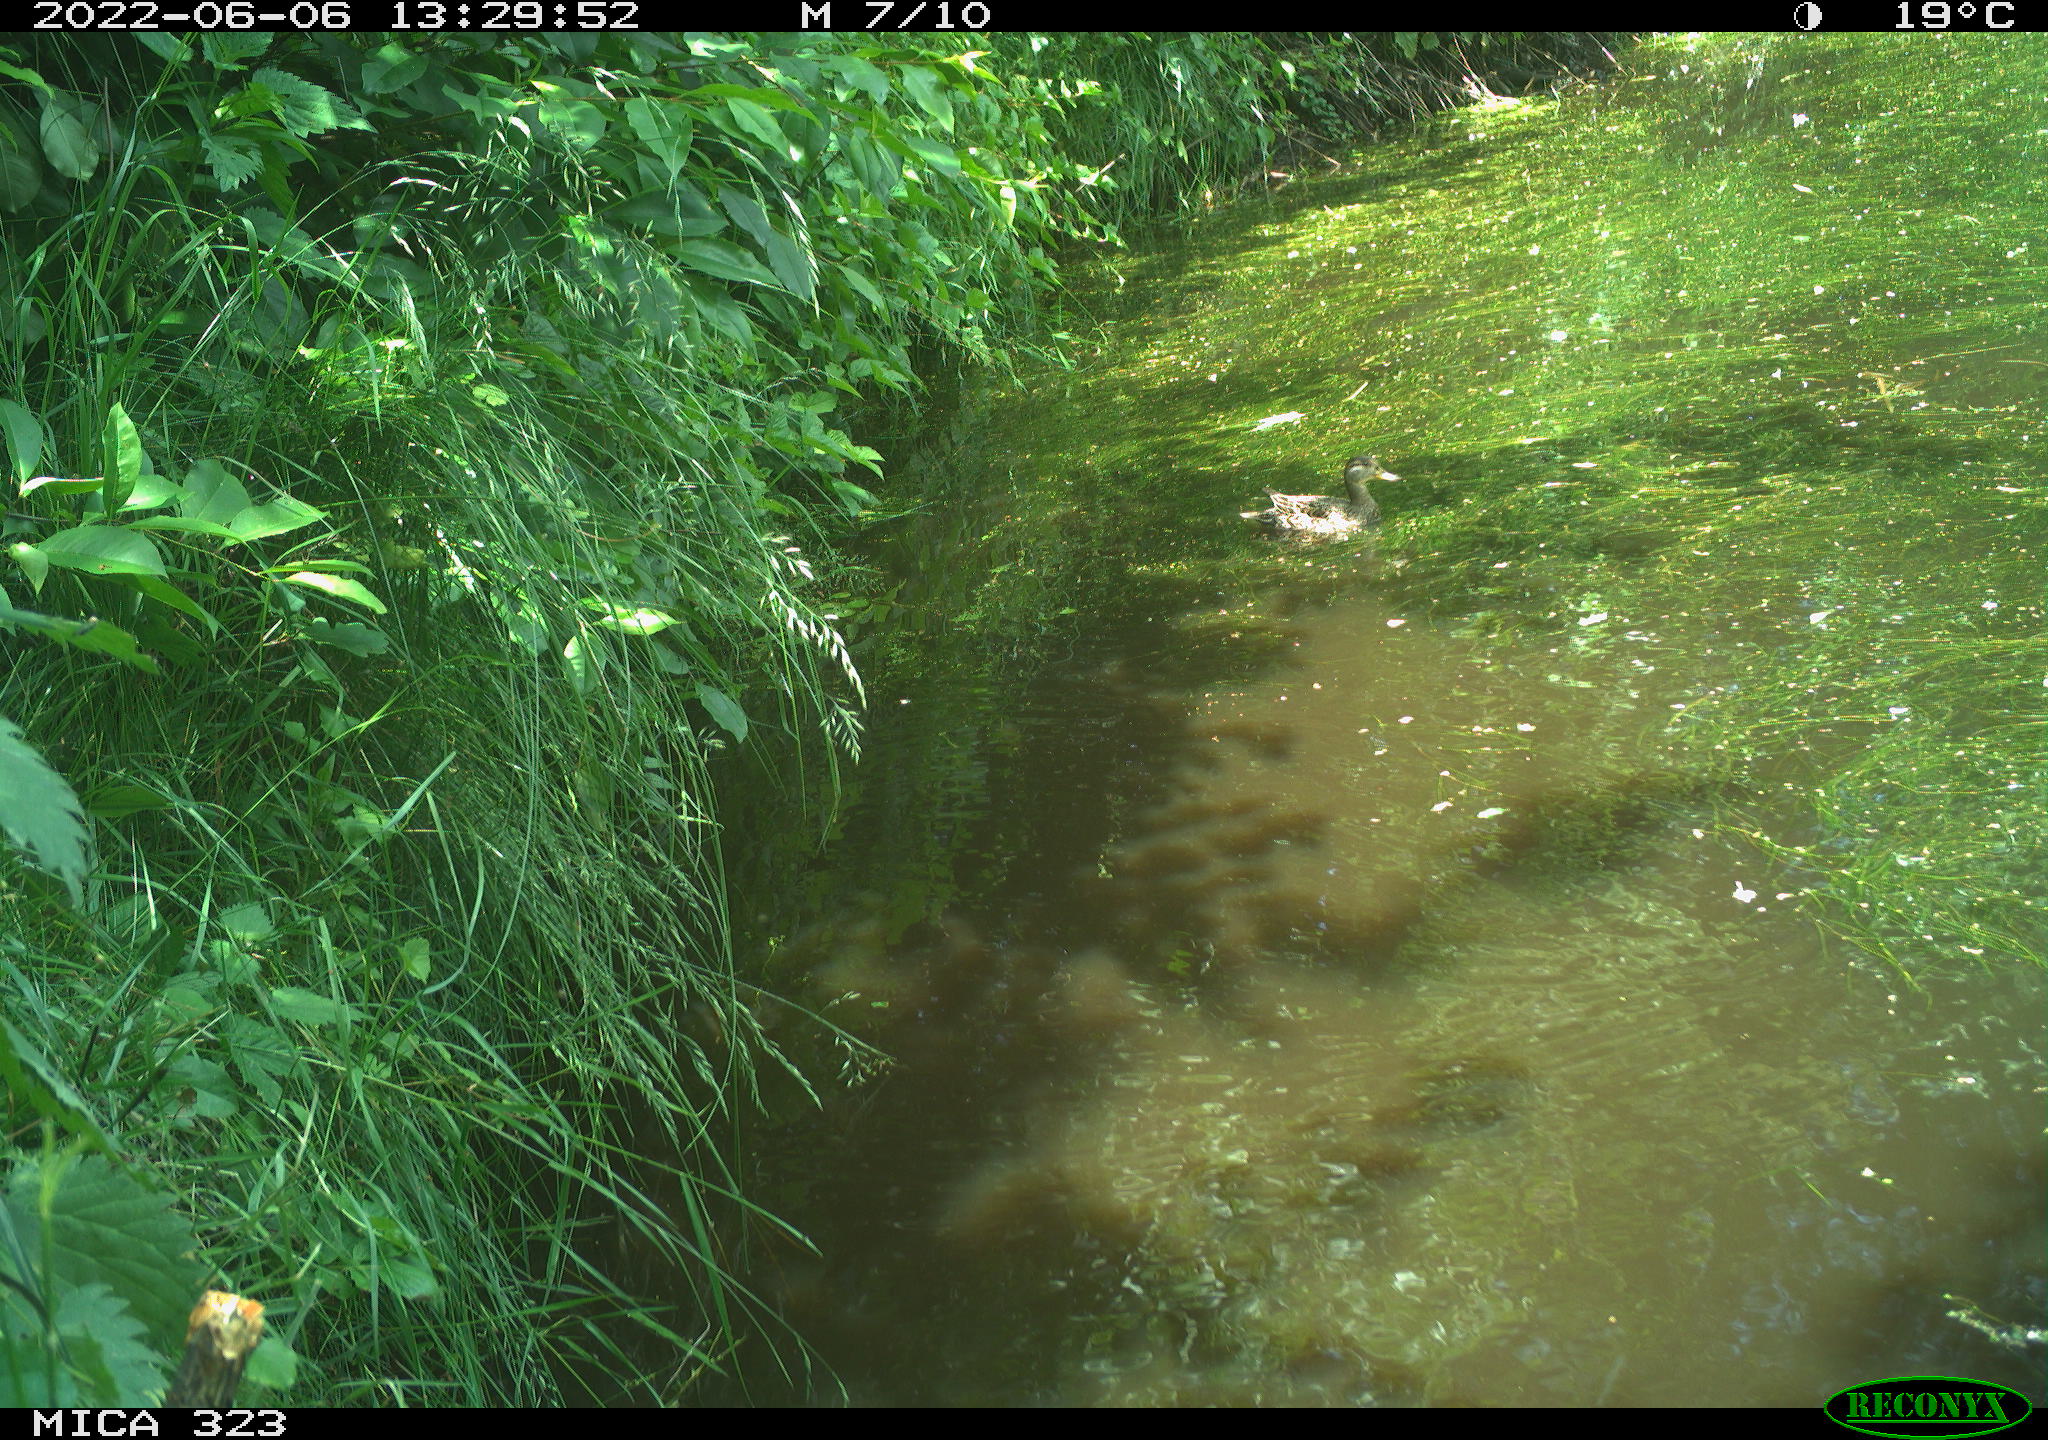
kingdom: Animalia
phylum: Chordata
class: Aves
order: Anseriformes
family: Anatidae
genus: Anas
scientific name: Anas platyrhynchos
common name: Mallard
